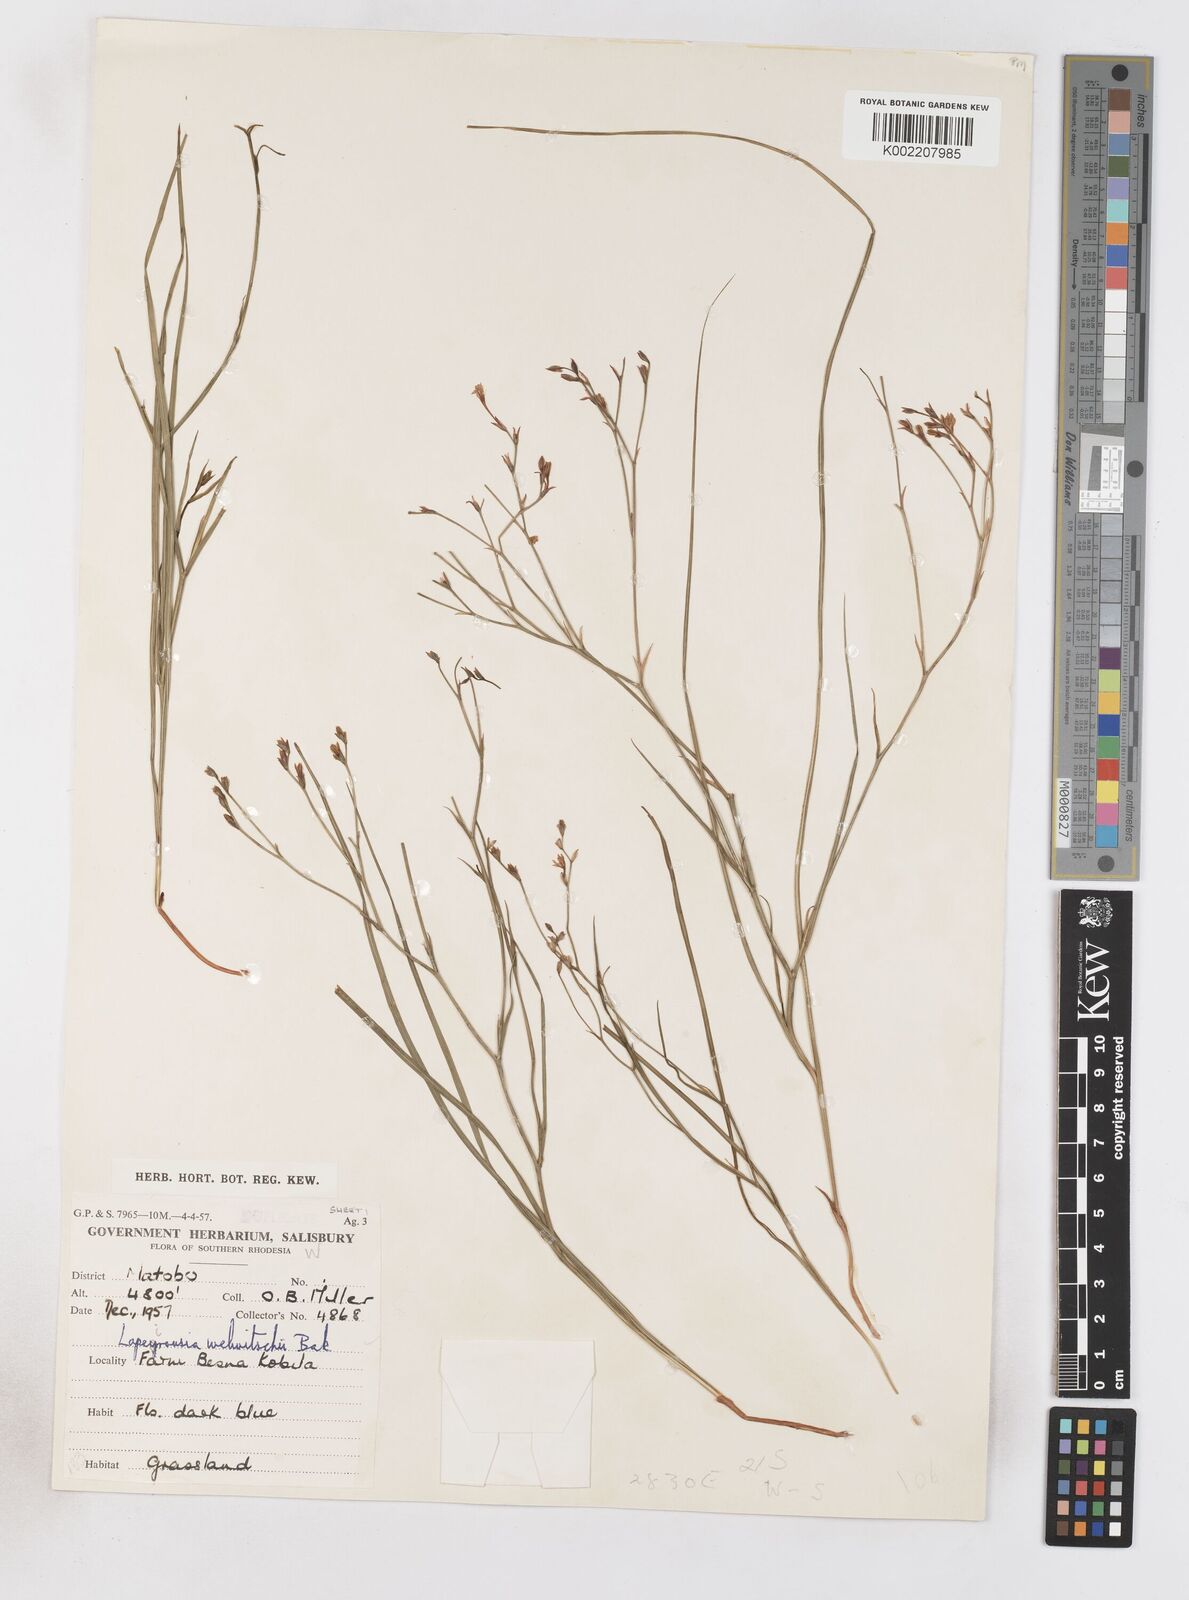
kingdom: Plantae
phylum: Tracheophyta
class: Liliopsida
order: Asparagales
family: Iridaceae
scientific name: Iridaceae
